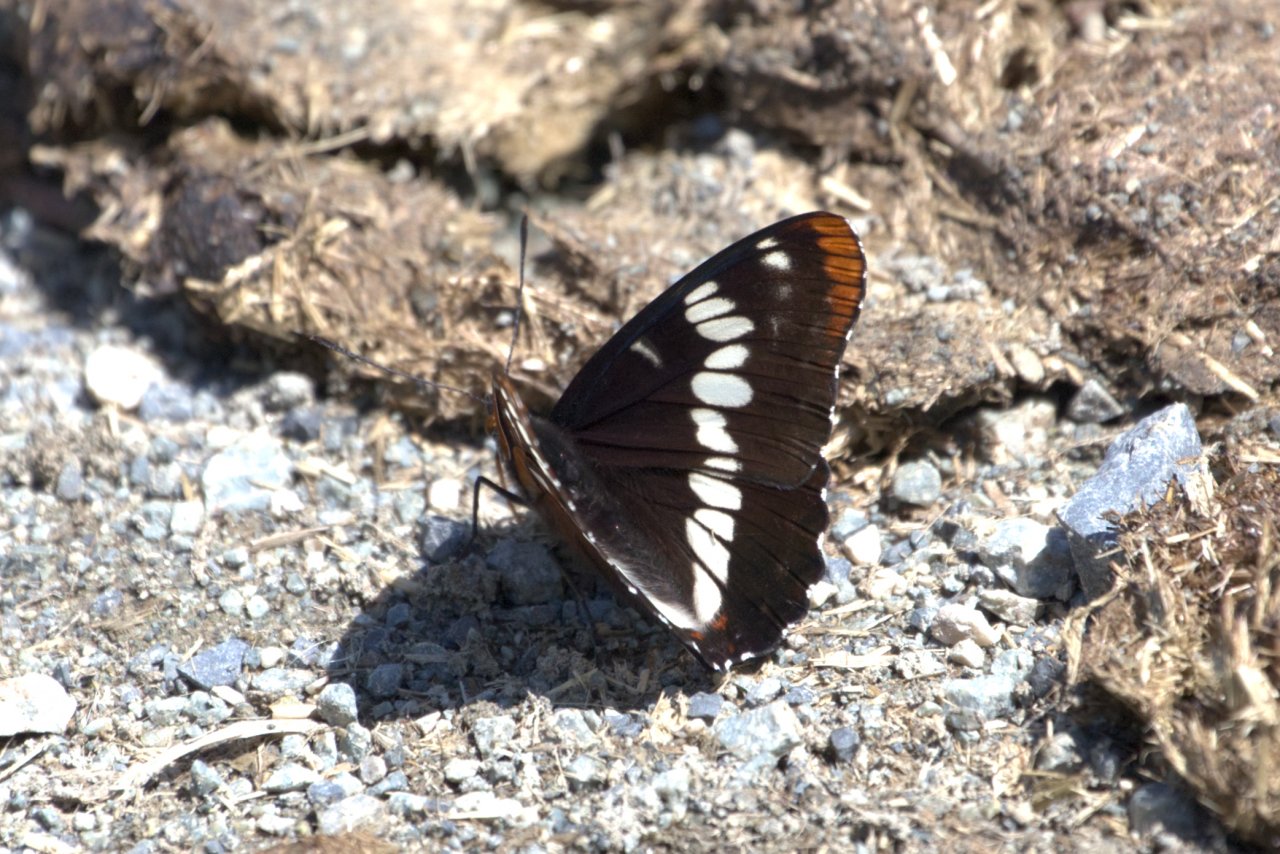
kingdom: Animalia
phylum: Arthropoda
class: Insecta
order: Lepidoptera
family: Nymphalidae
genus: Limenitis
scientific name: Limenitis lorquini
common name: Lorquin's Admiral
